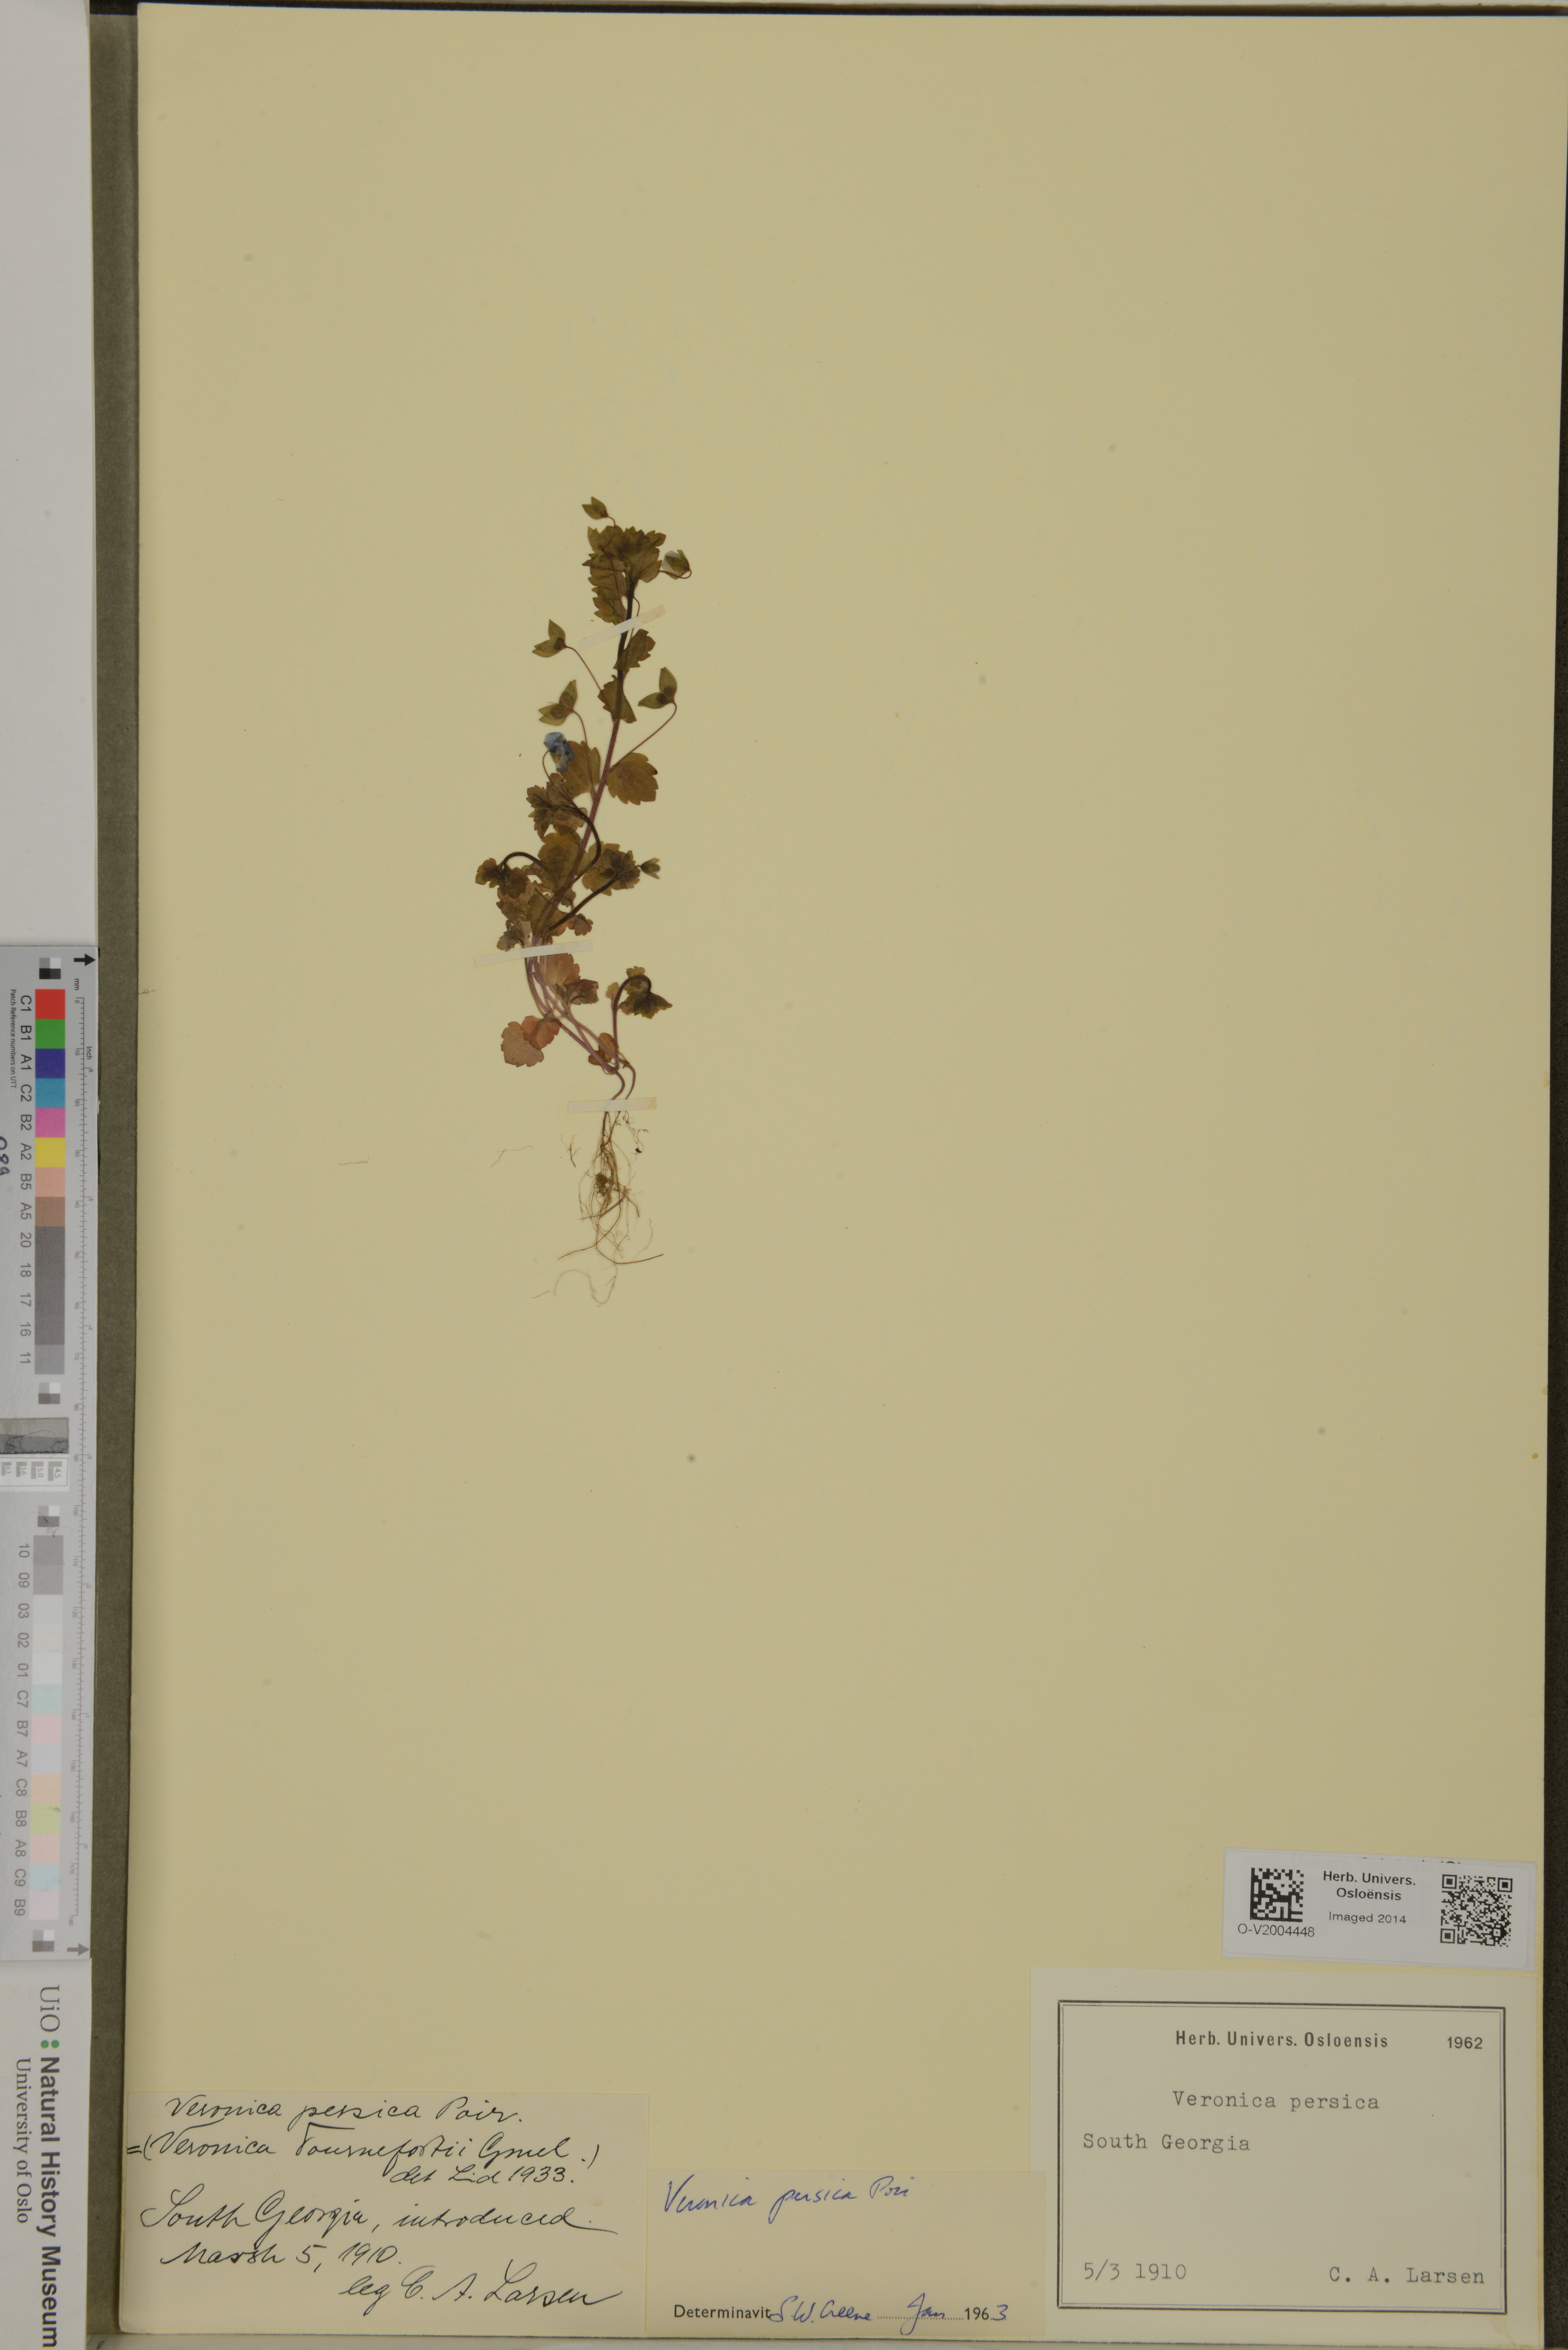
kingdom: Plantae
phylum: Tracheophyta
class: Magnoliopsida
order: Lamiales
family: Plantaginaceae
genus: Veronica
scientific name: Veronica persica
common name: Common field-speedwell
